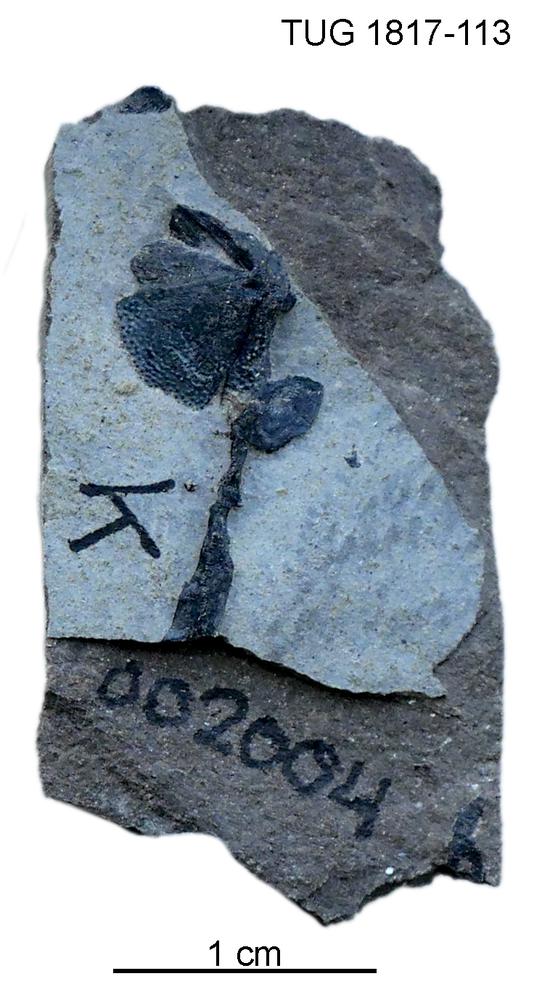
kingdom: Animalia
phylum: Chordata
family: Coccosteidae
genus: Millerosteus
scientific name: Millerosteus minor
